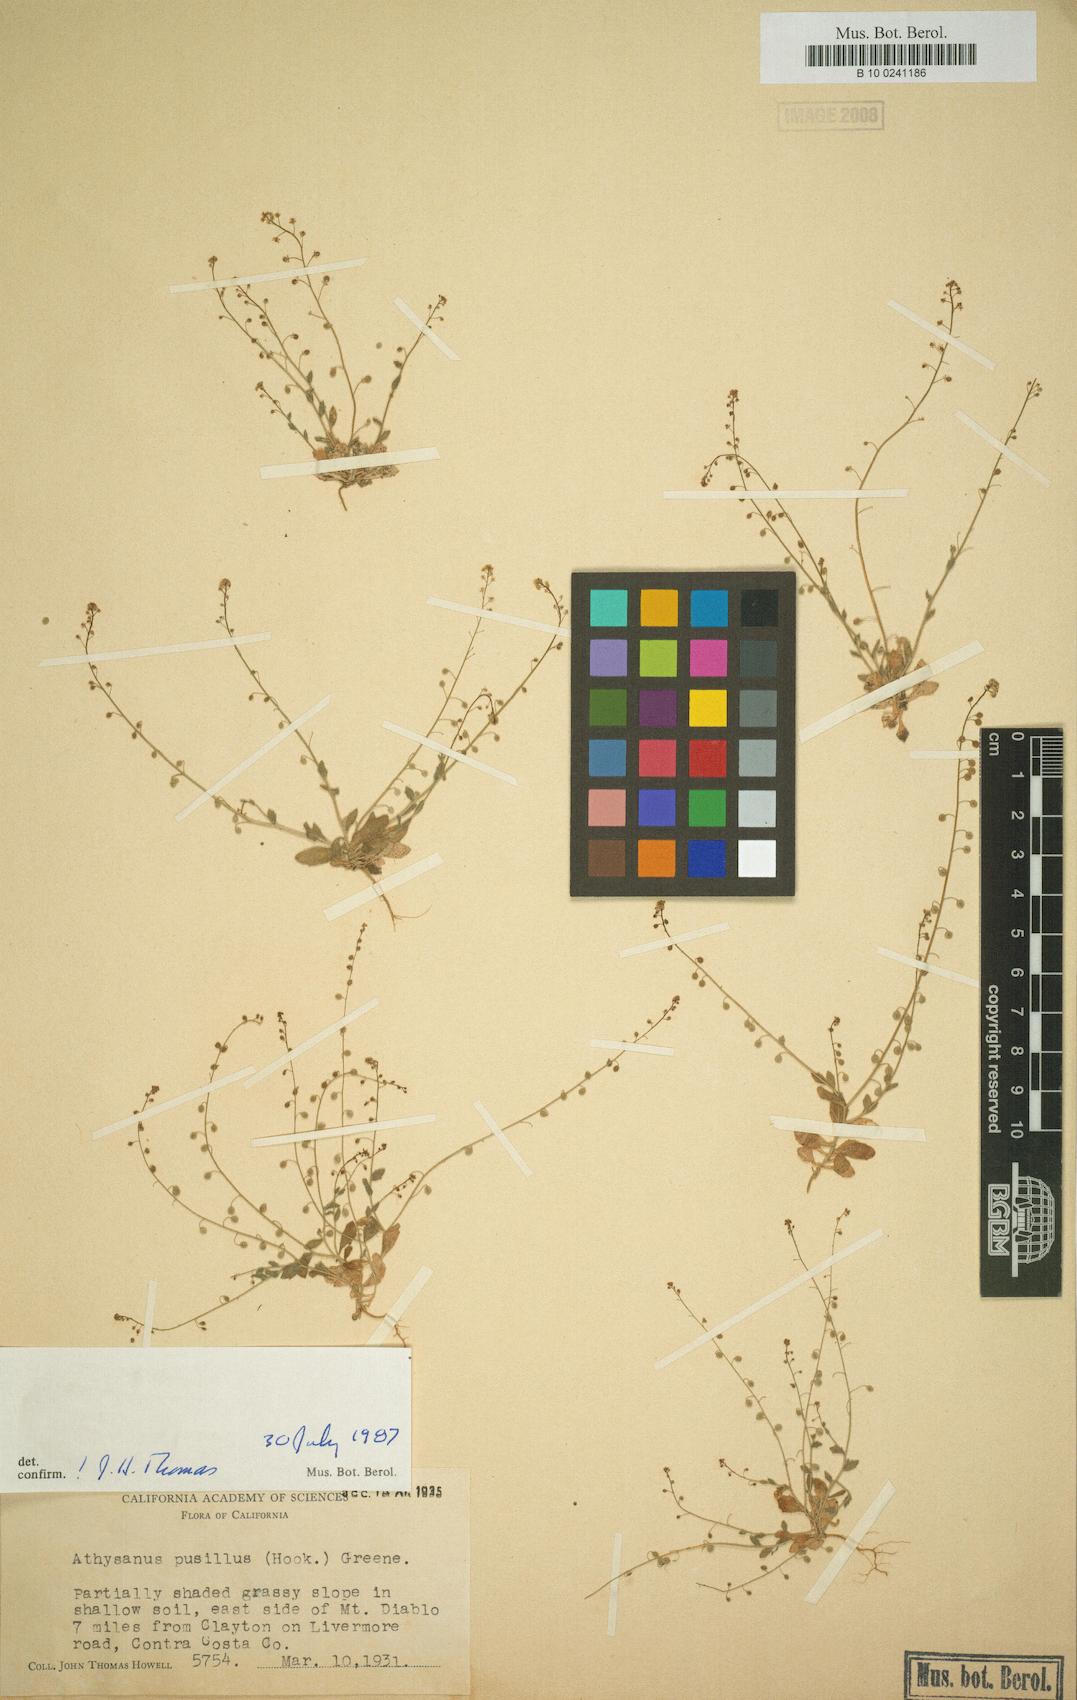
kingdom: Plantae
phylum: Tracheophyta
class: Magnoliopsida
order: Brassicales
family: Brassicaceae
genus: Athysanus
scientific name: Athysanus pusillus
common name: Common sandweed
